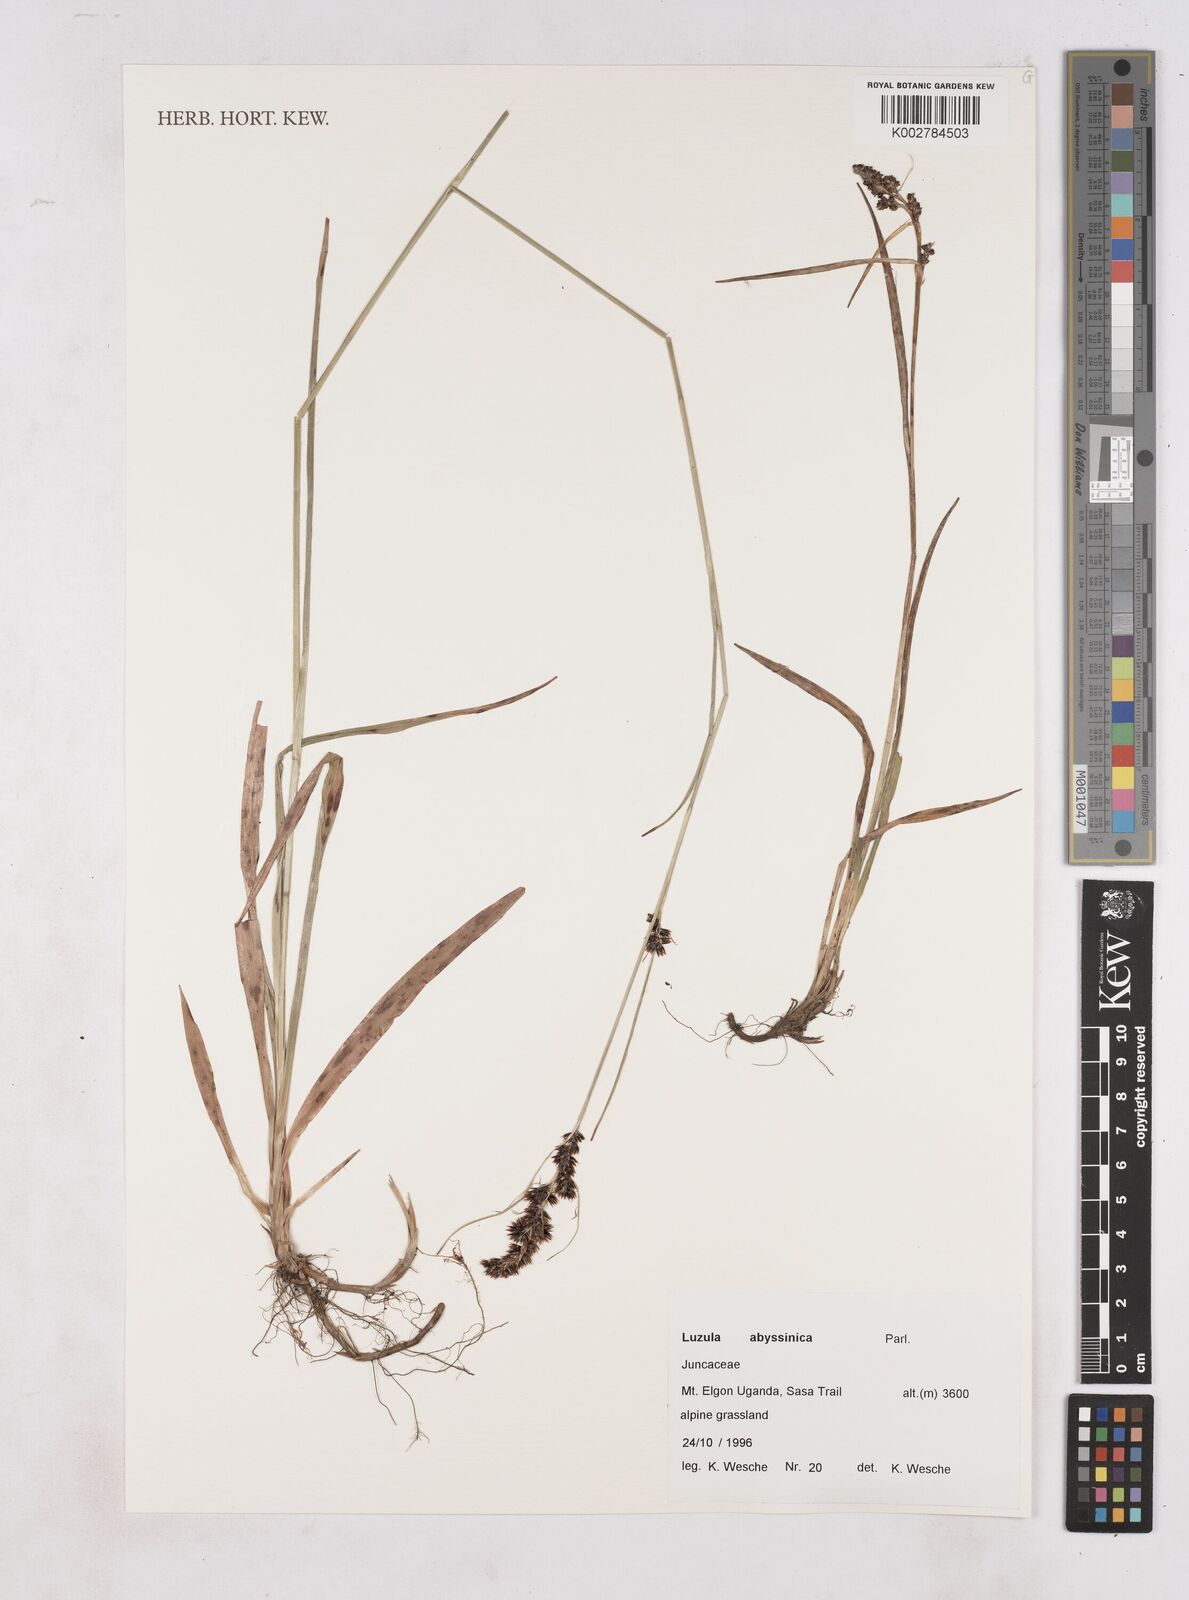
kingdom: Plantae
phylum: Tracheophyta
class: Liliopsida
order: Poales
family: Juncaceae
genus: Luzula
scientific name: Luzula abyssinica
